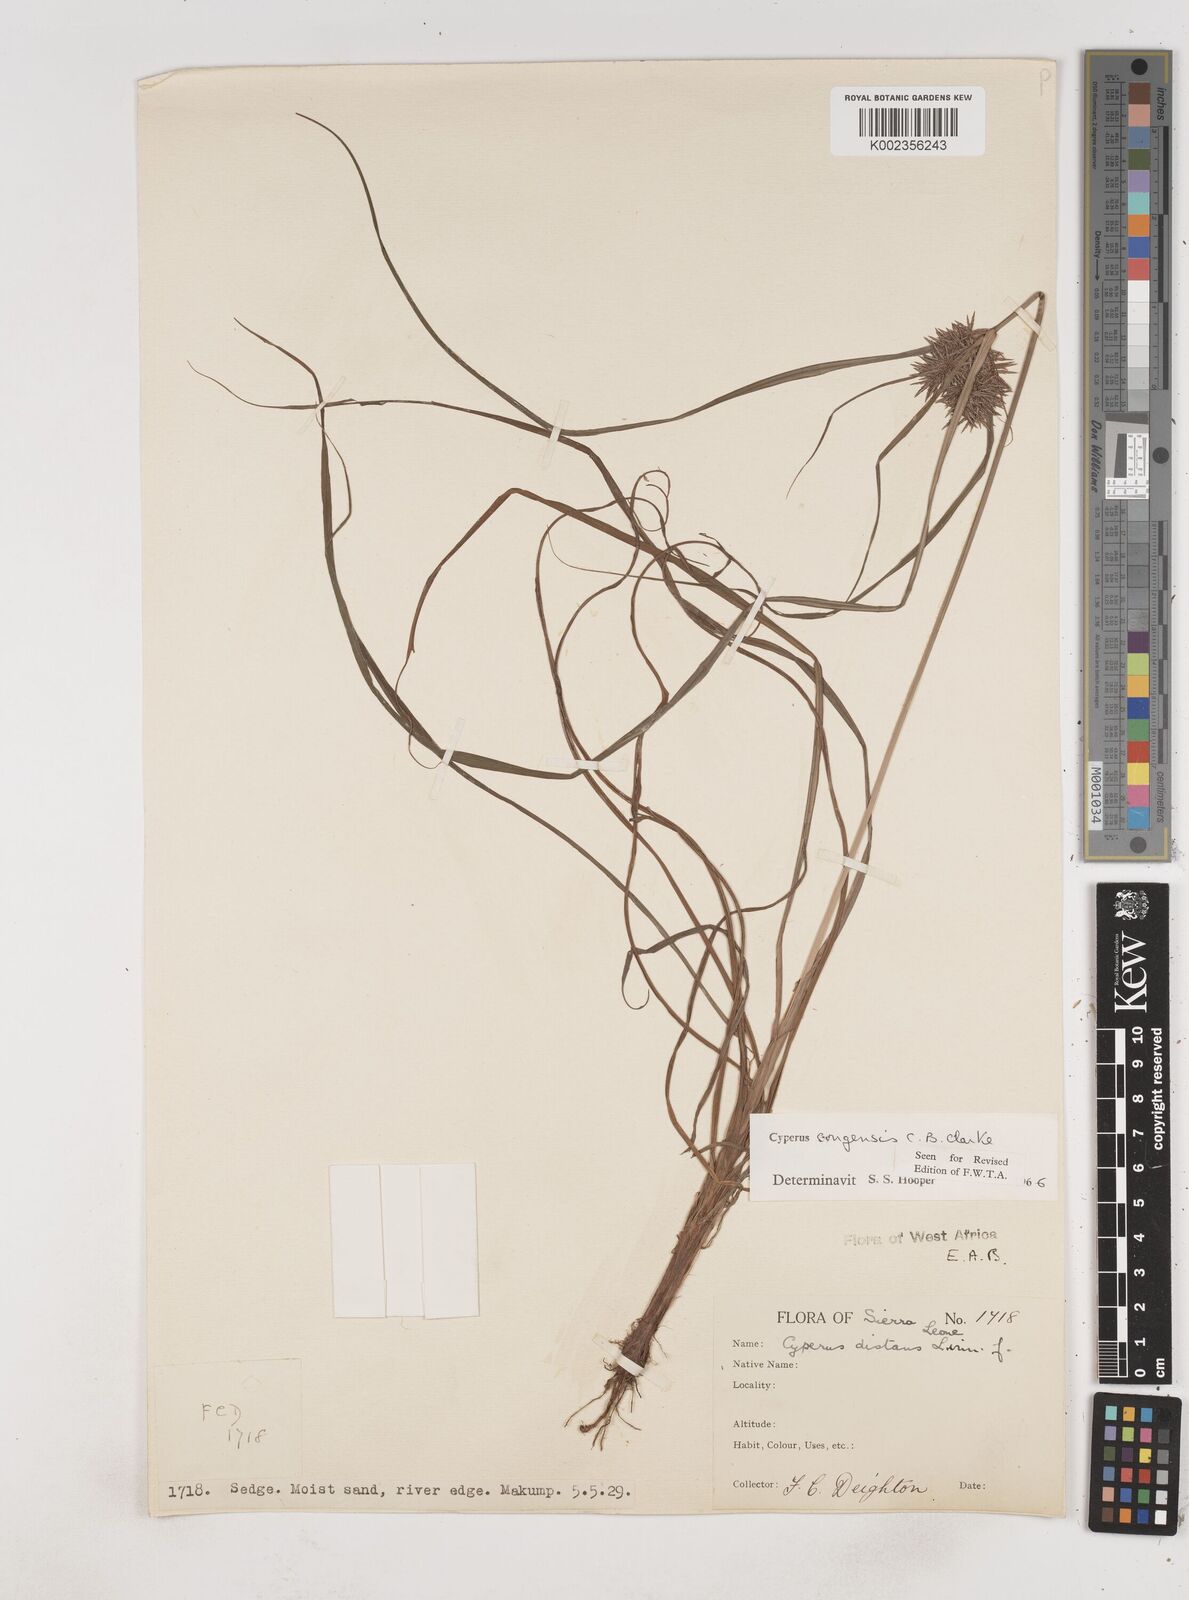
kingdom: Plantae
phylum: Tracheophyta
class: Liliopsida
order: Poales
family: Cyperaceae
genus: Cyperus
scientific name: Cyperus congensis
